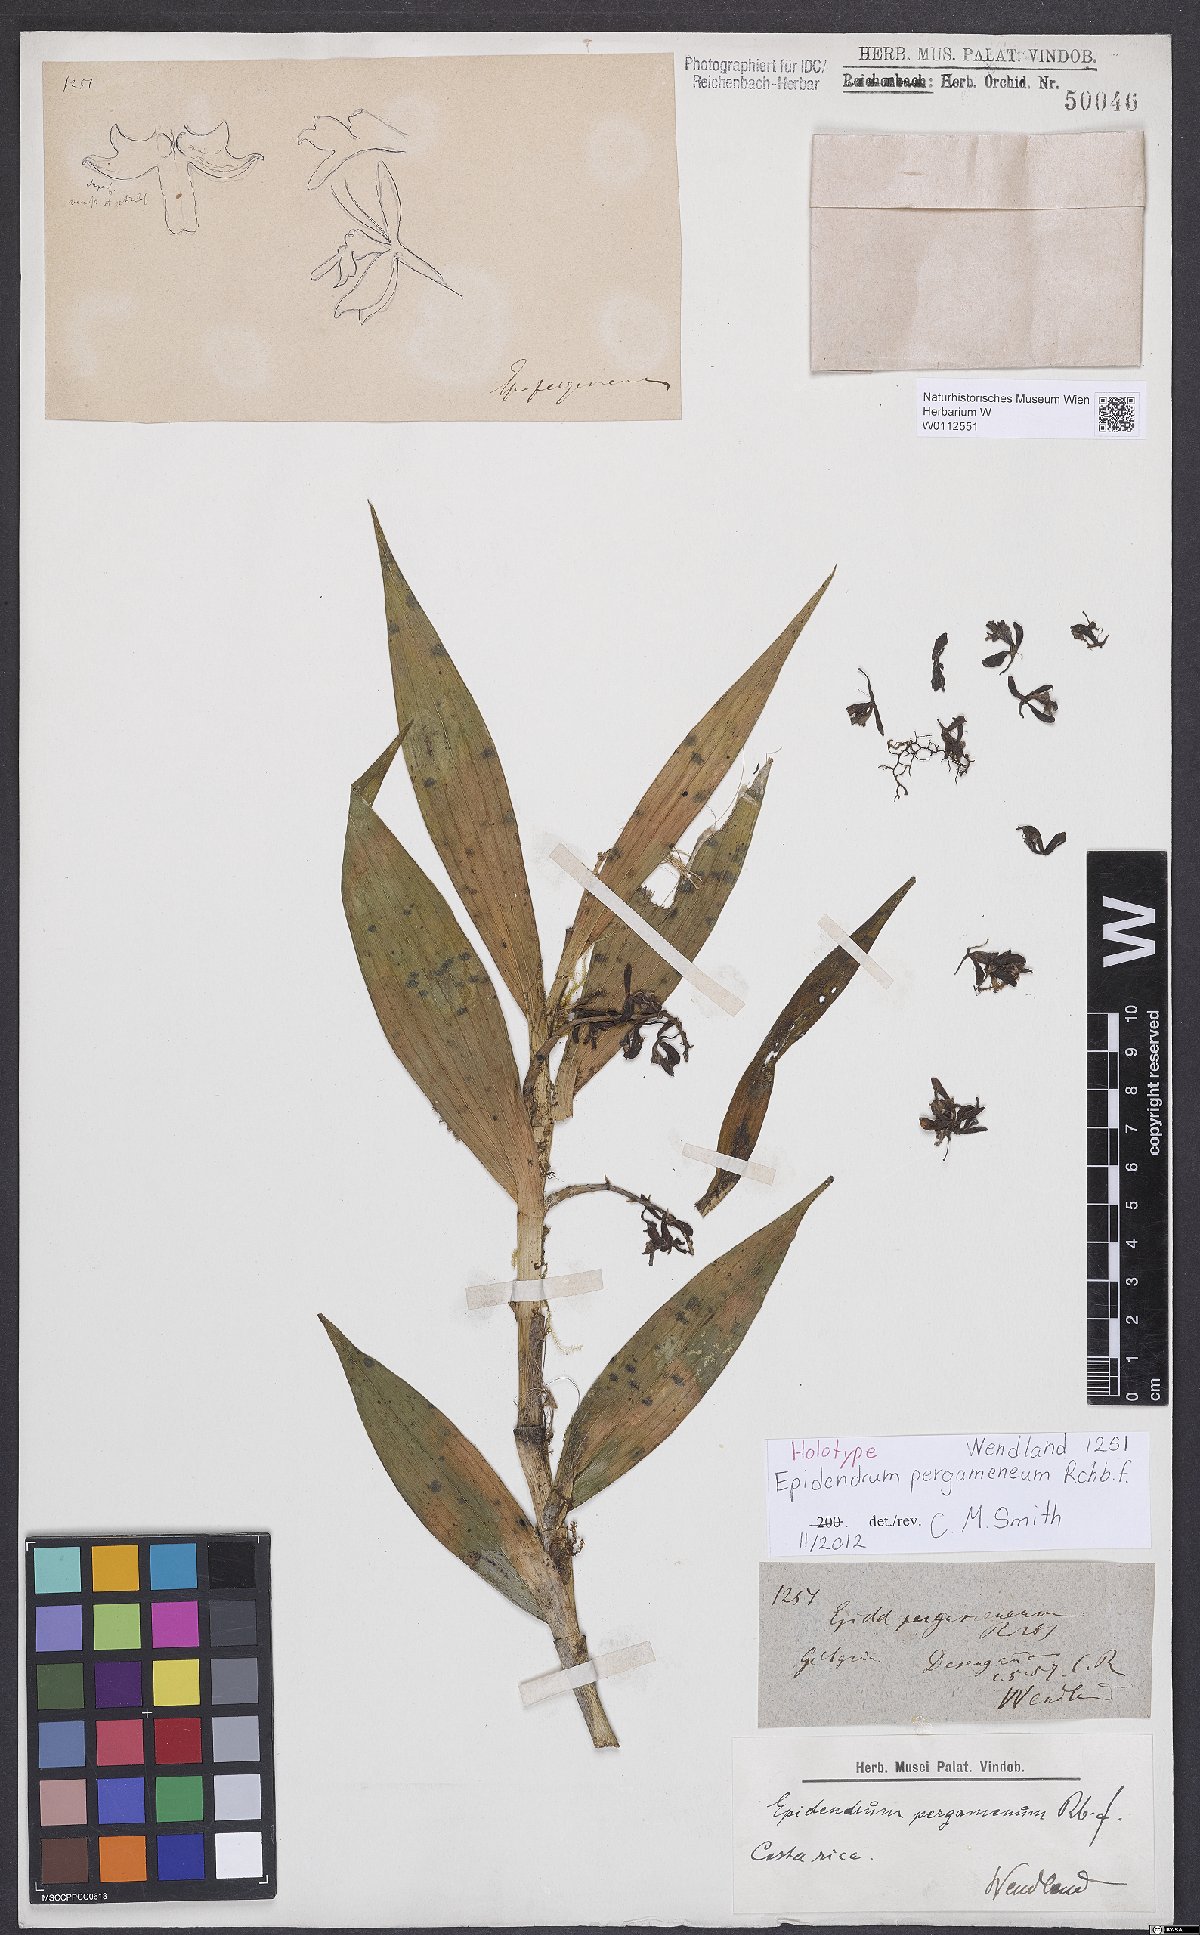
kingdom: Plantae
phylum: Tracheophyta
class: Liliopsida
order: Asparagales
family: Orchidaceae
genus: Epidendrum
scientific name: Epidendrum pergameneum
